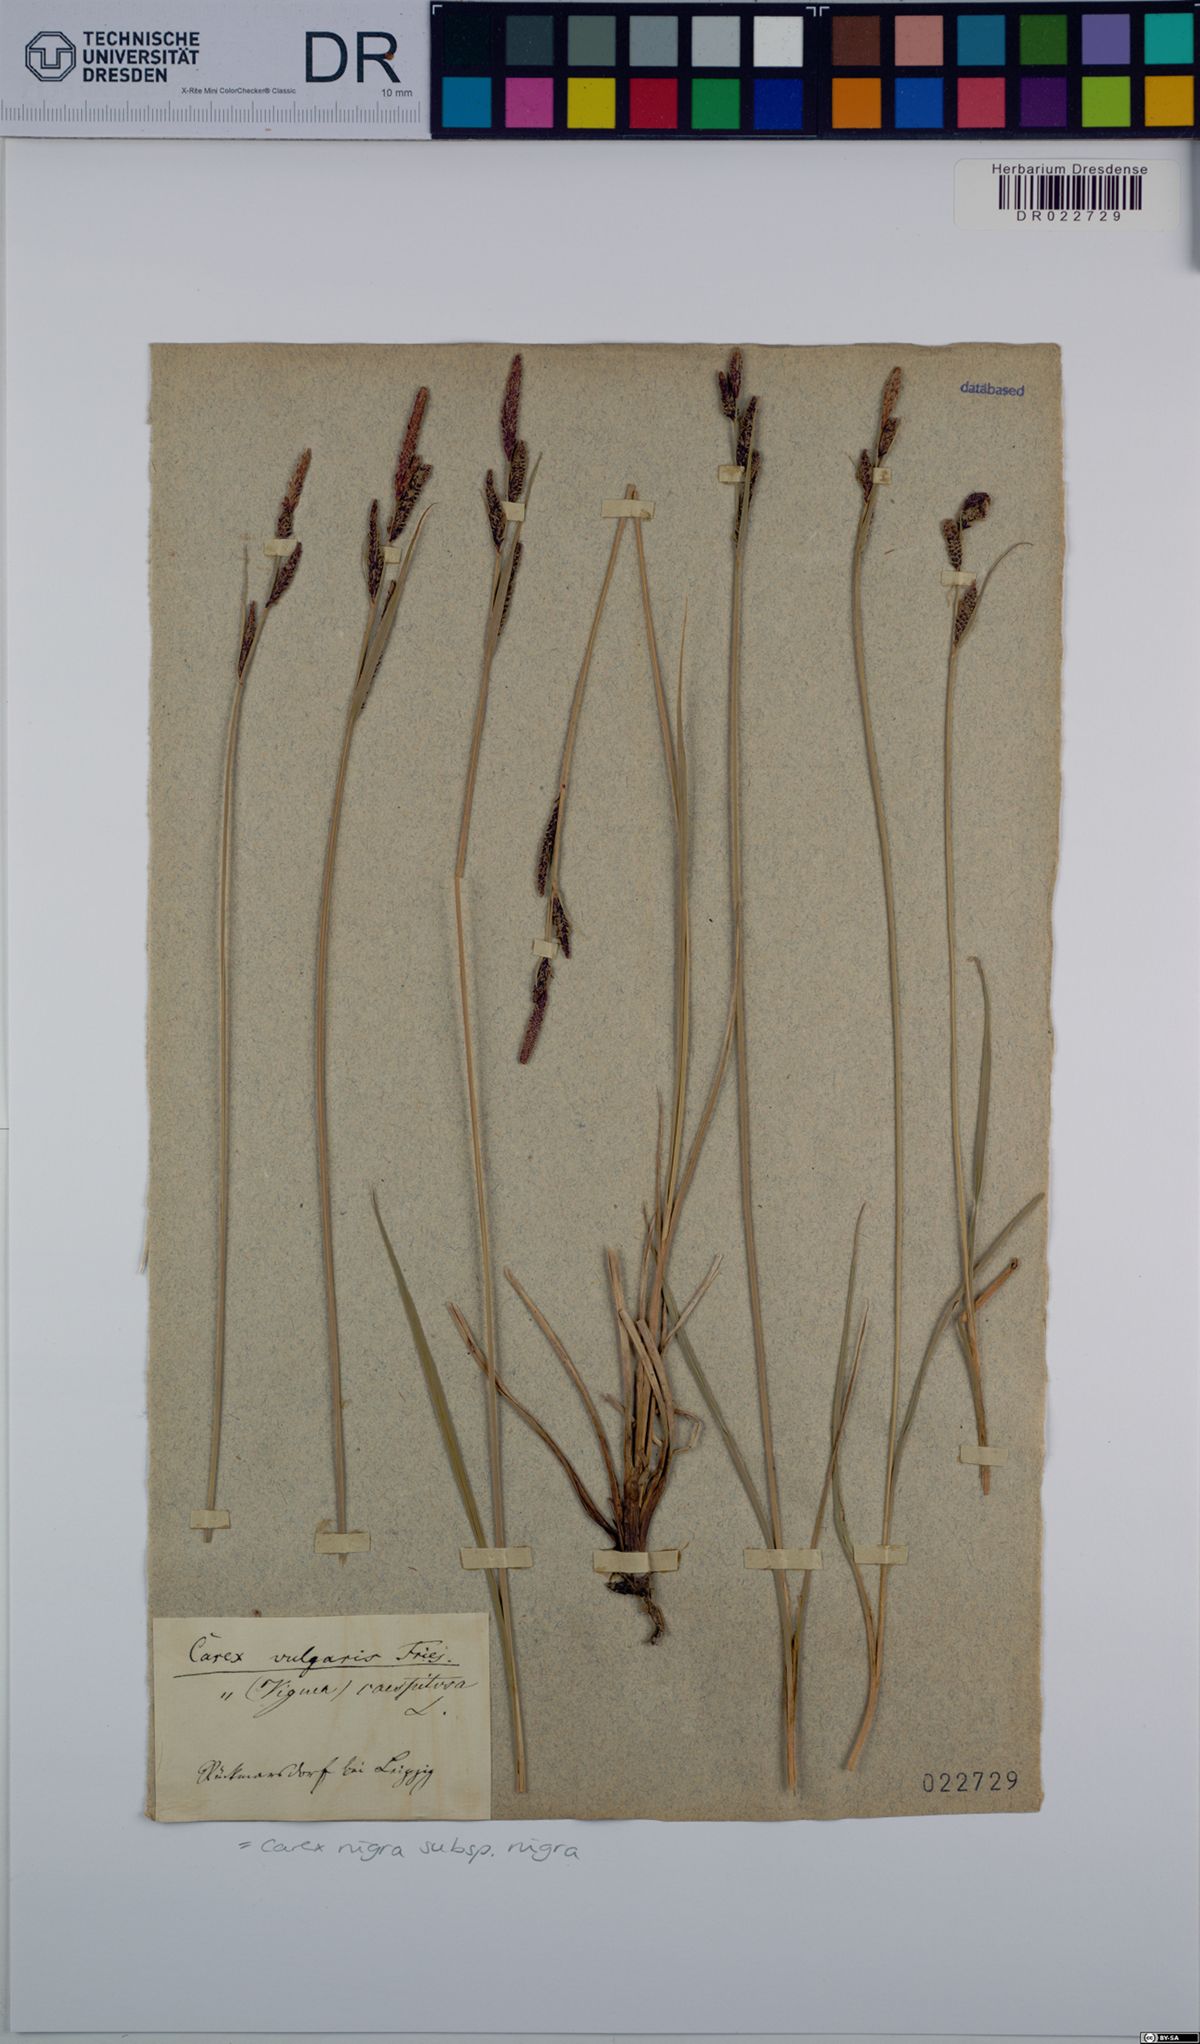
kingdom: Plantae
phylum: Tracheophyta
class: Liliopsida
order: Poales
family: Cyperaceae
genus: Carex
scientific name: Carex nigra
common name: Common sedge
